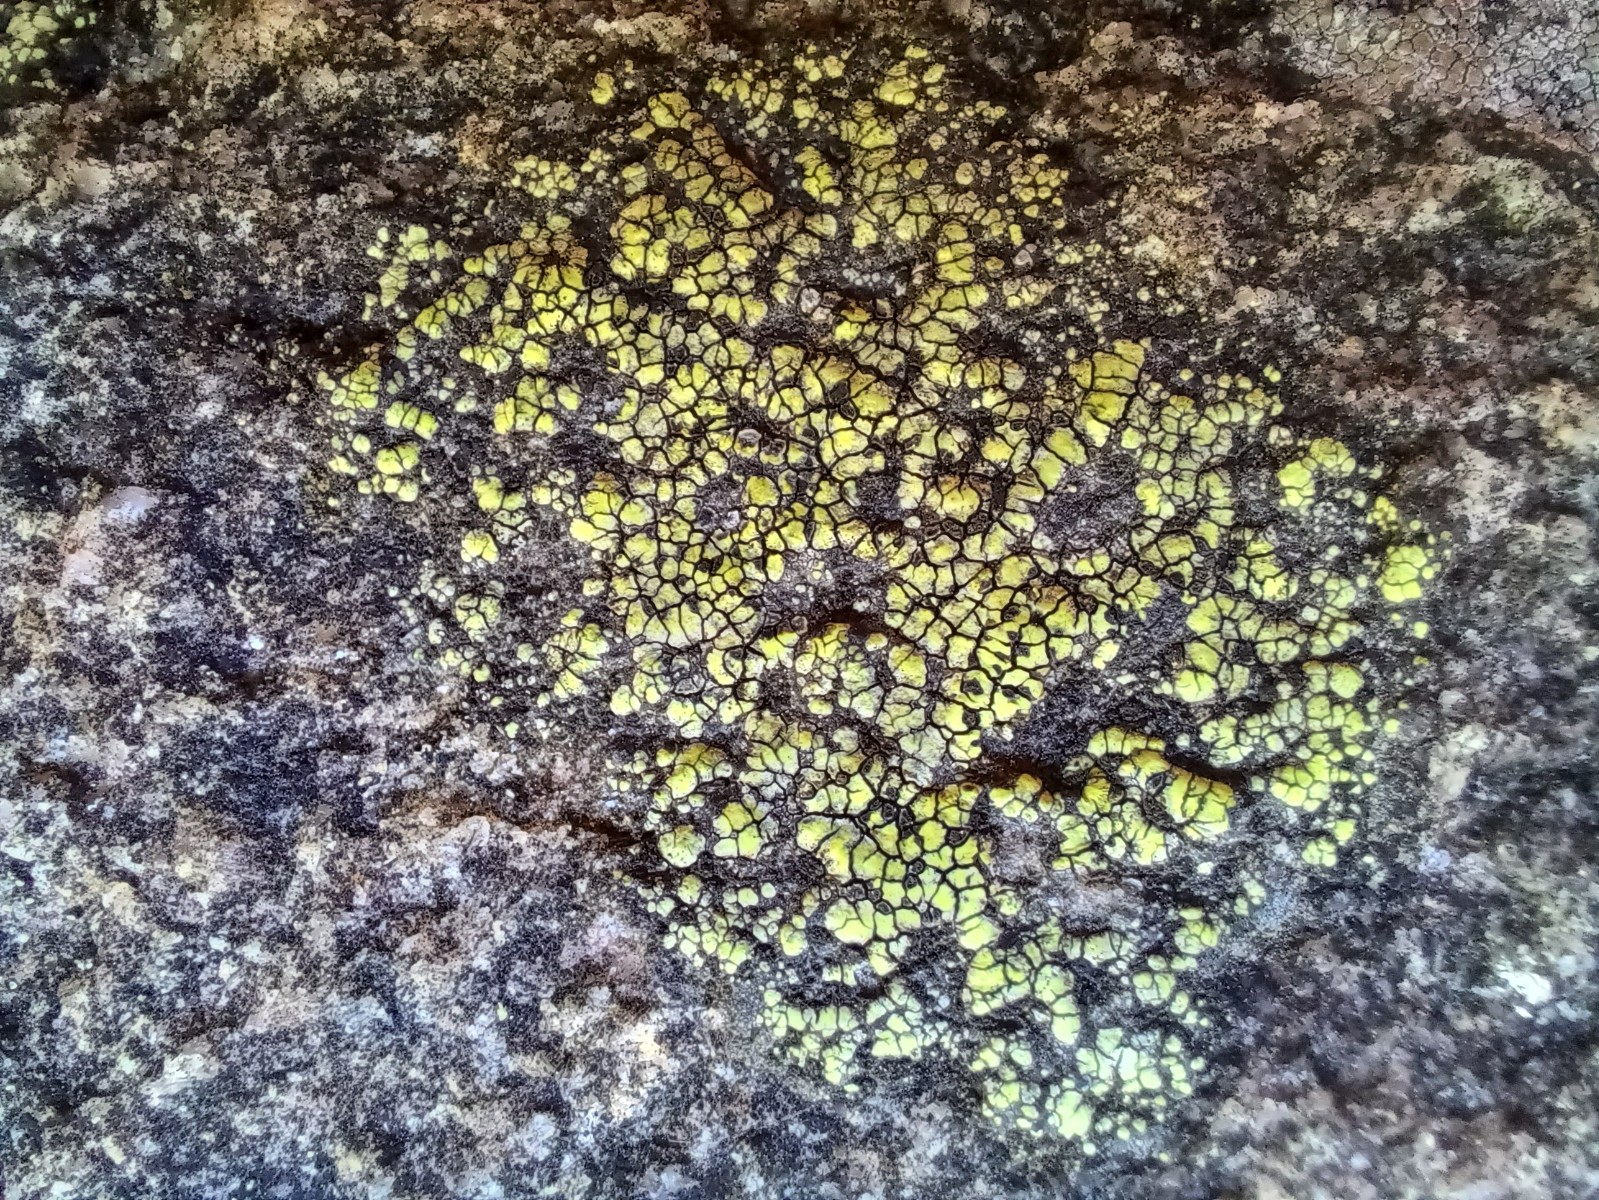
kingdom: Fungi
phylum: Ascomycota
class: Lecanoromycetes
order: Rhizocarpales
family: Rhizocarpaceae
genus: Rhizocarpon
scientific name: Rhizocarpon lecanorinum
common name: krave-landkortlav
